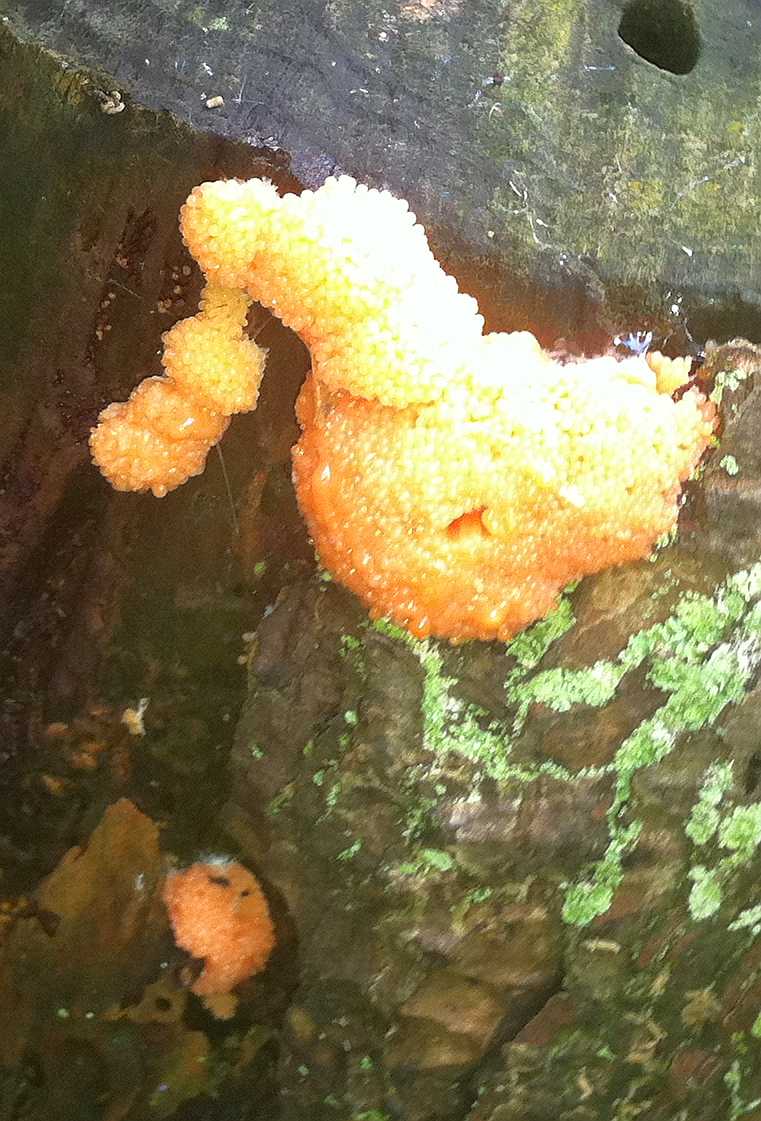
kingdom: Protozoa
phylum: Mycetozoa
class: Myxomycetes
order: Cribrariales
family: Tubiferaceae
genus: Tubifera
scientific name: Tubifera ferruginosa
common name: kanel-støvrør
